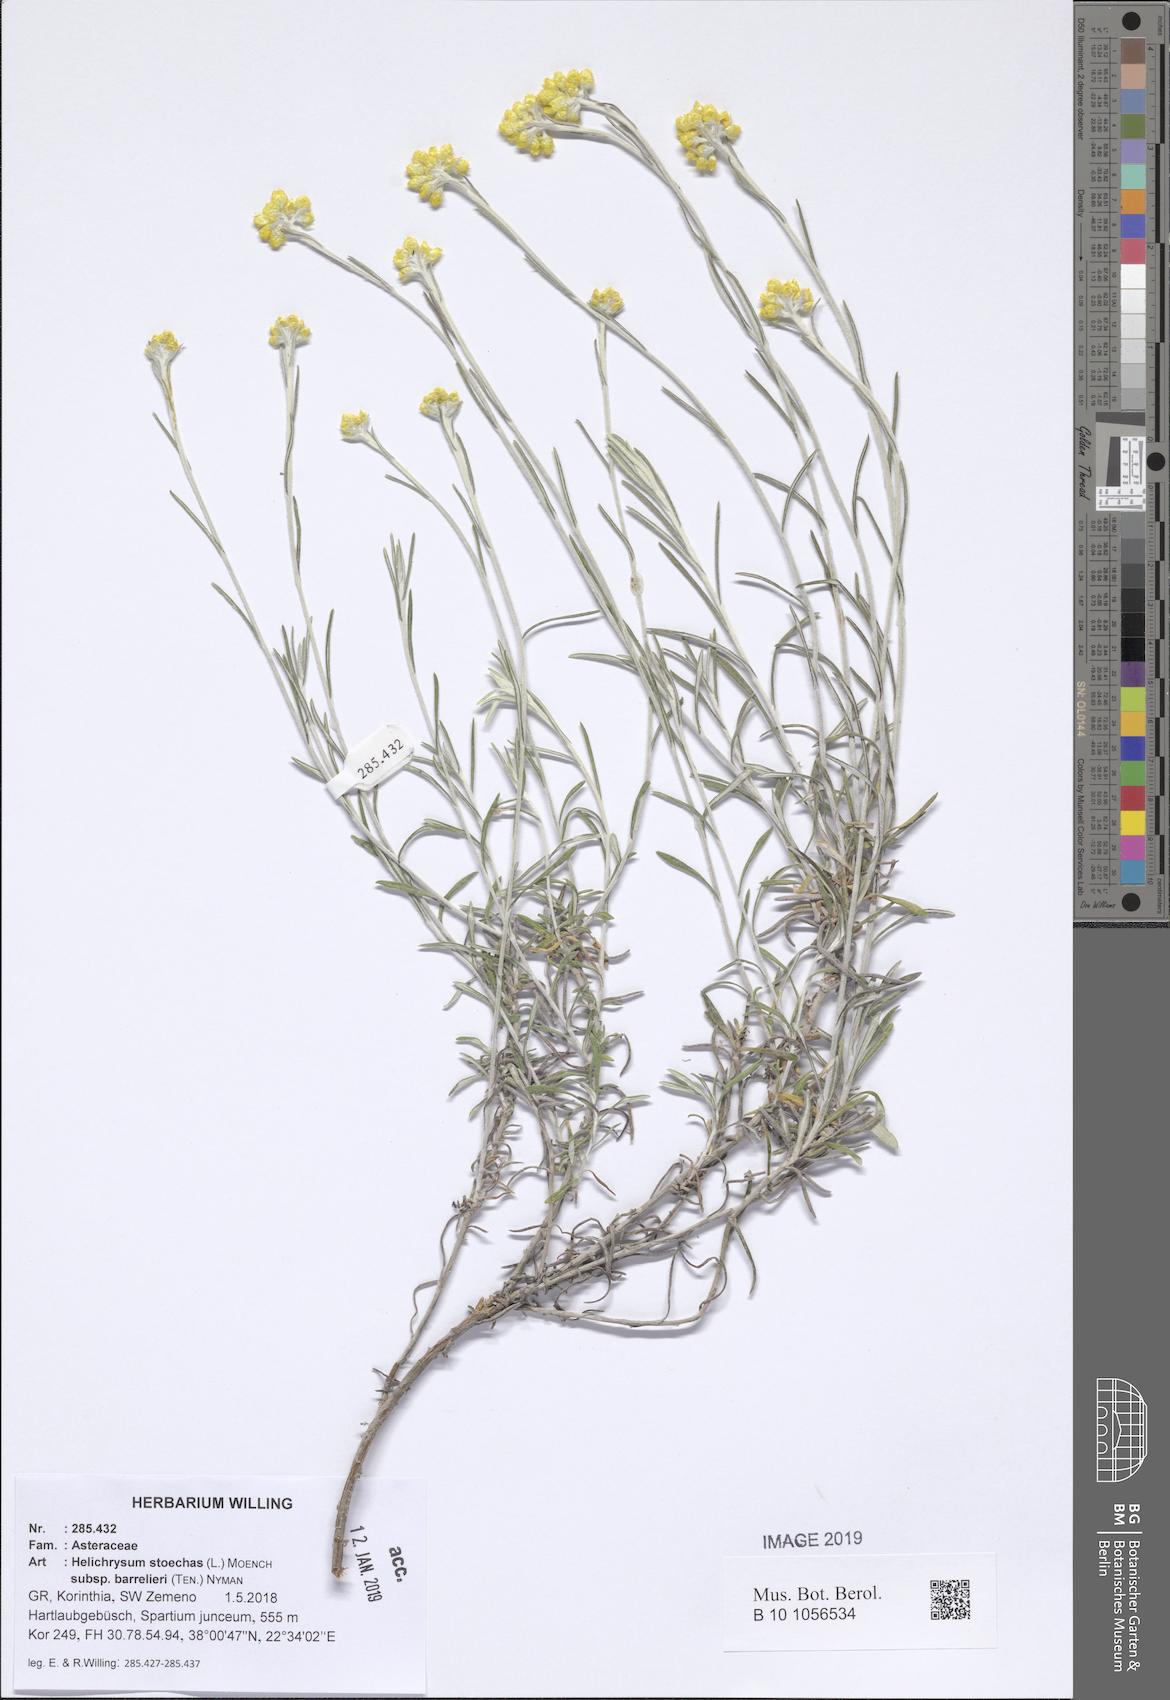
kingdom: Plantae
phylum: Tracheophyta
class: Magnoliopsida
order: Asterales
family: Asteraceae
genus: Helichrysum
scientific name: Helichrysum stoechas
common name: Goldilocks
